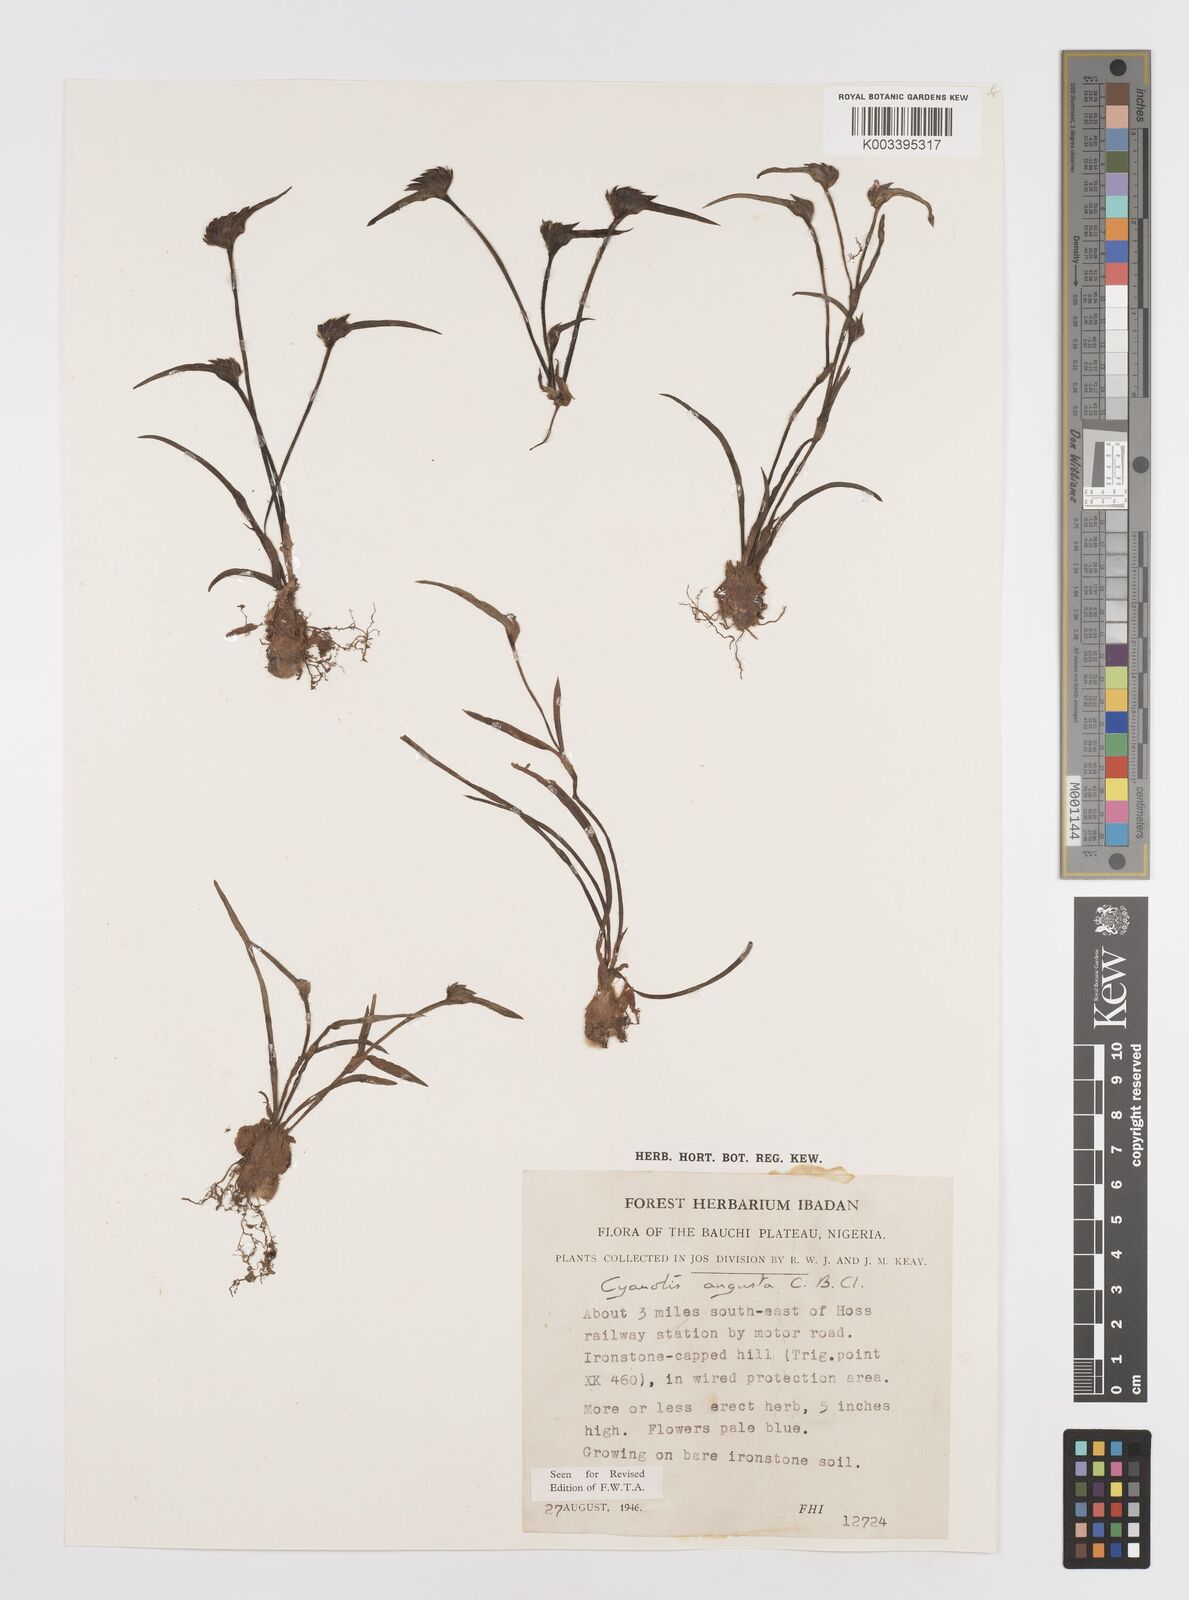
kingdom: Plantae
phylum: Tracheophyta
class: Liliopsida
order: Commelinales
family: Commelinaceae
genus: Cyanotis
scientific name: Cyanotis angusta
